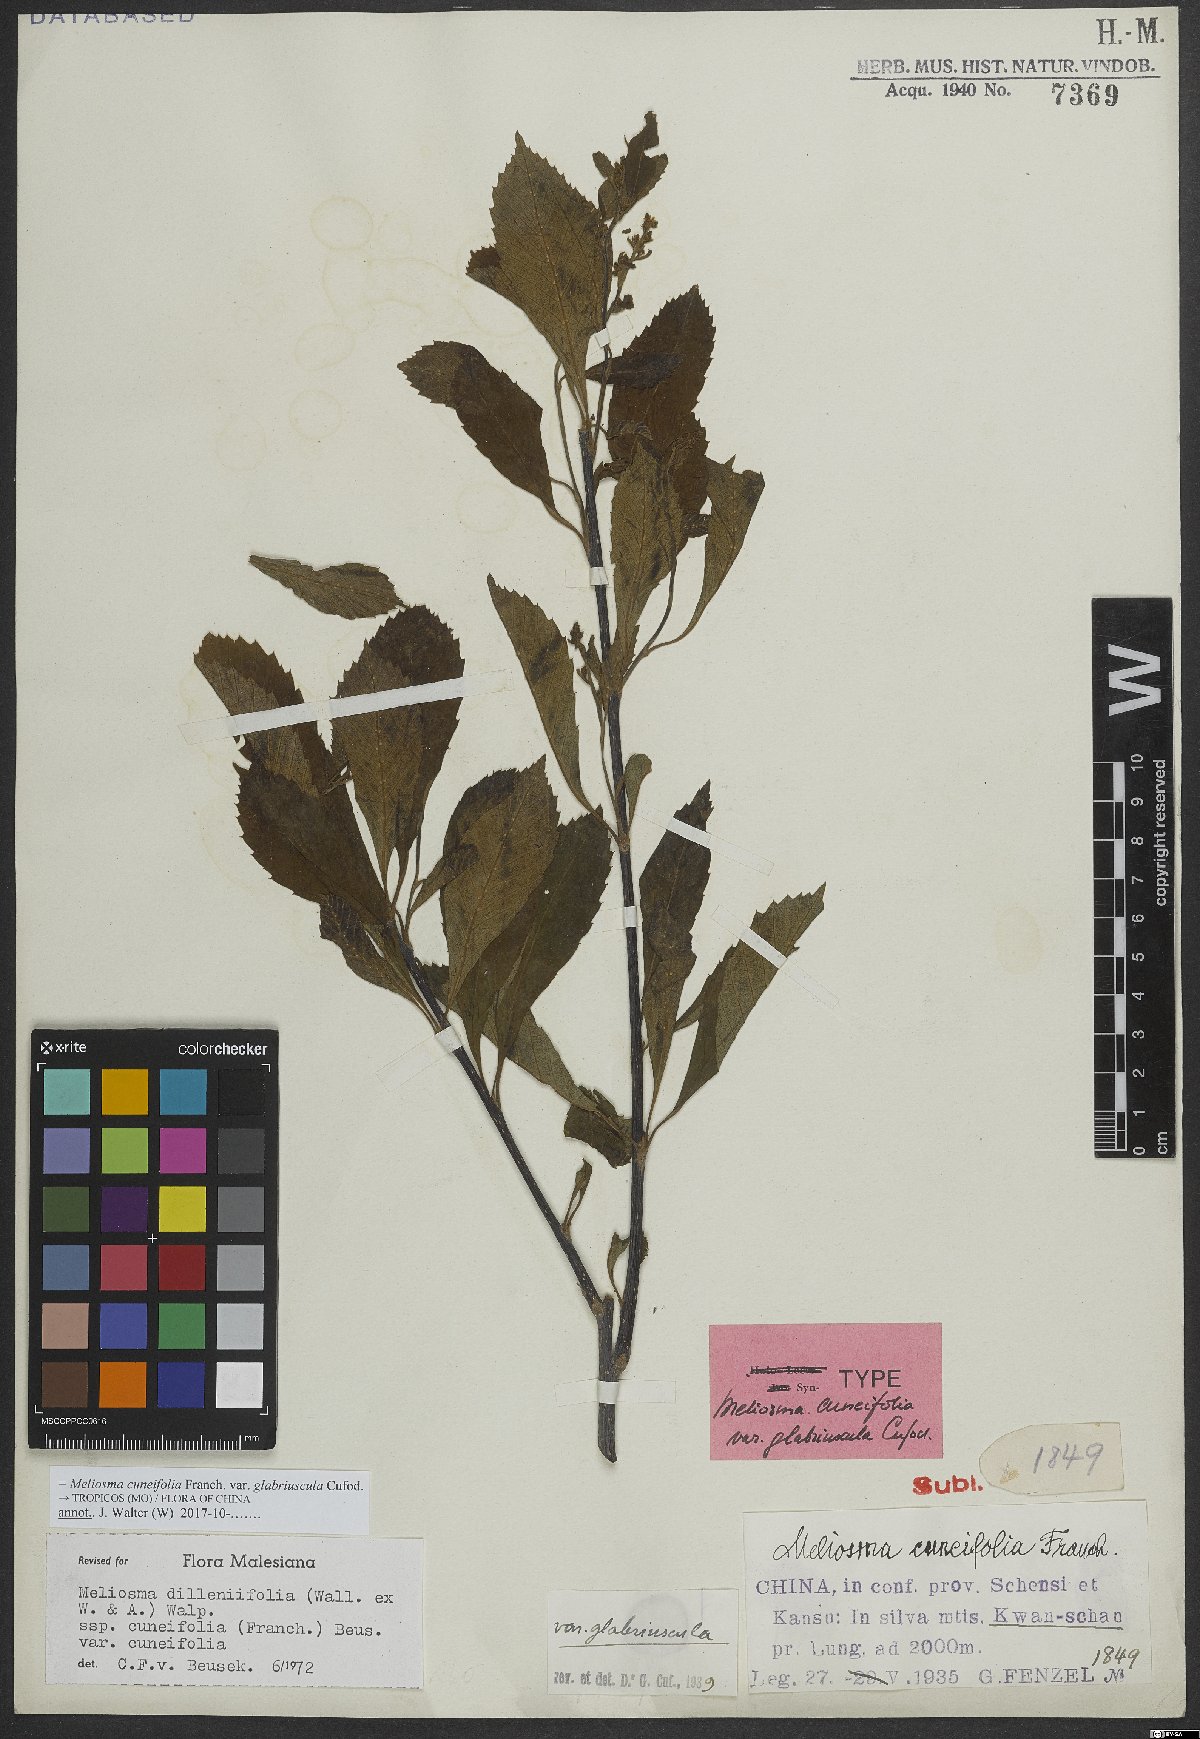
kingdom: Plantae
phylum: Tracheophyta
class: Magnoliopsida
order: Proteales
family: Sabiaceae
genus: Meliosma
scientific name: Meliosma cuneifolia
